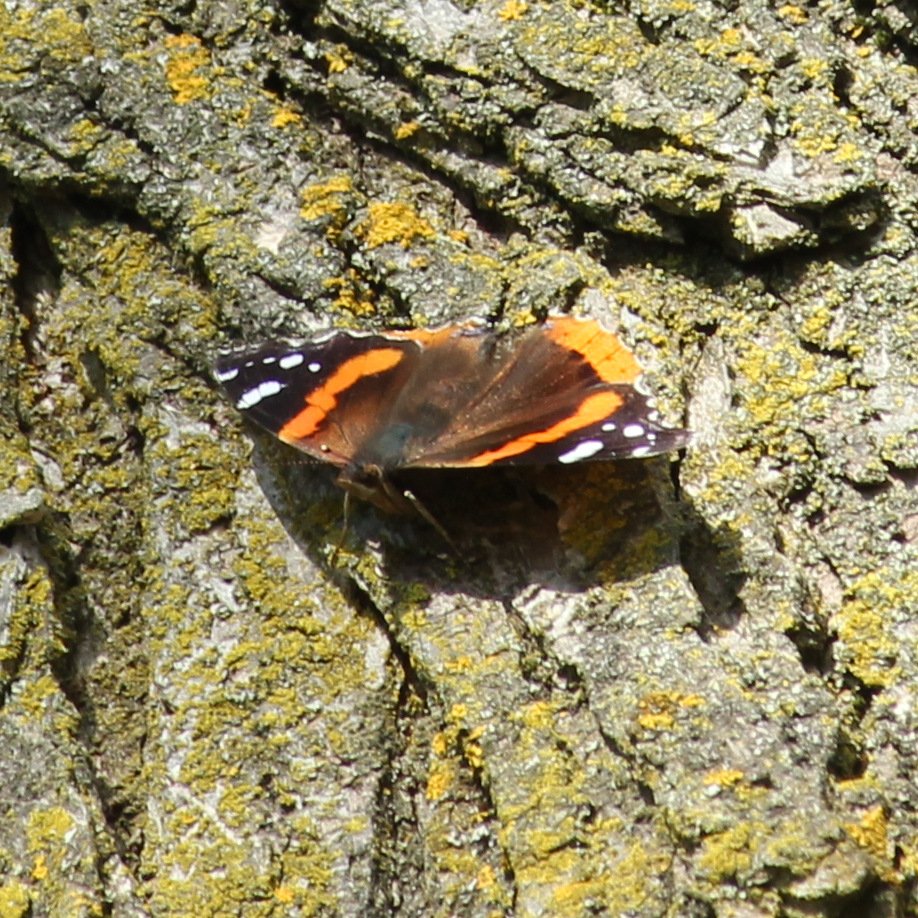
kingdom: Animalia
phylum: Arthropoda
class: Insecta
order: Lepidoptera
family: Nymphalidae
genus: Vanessa
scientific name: Vanessa atalanta
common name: Red Admiral
